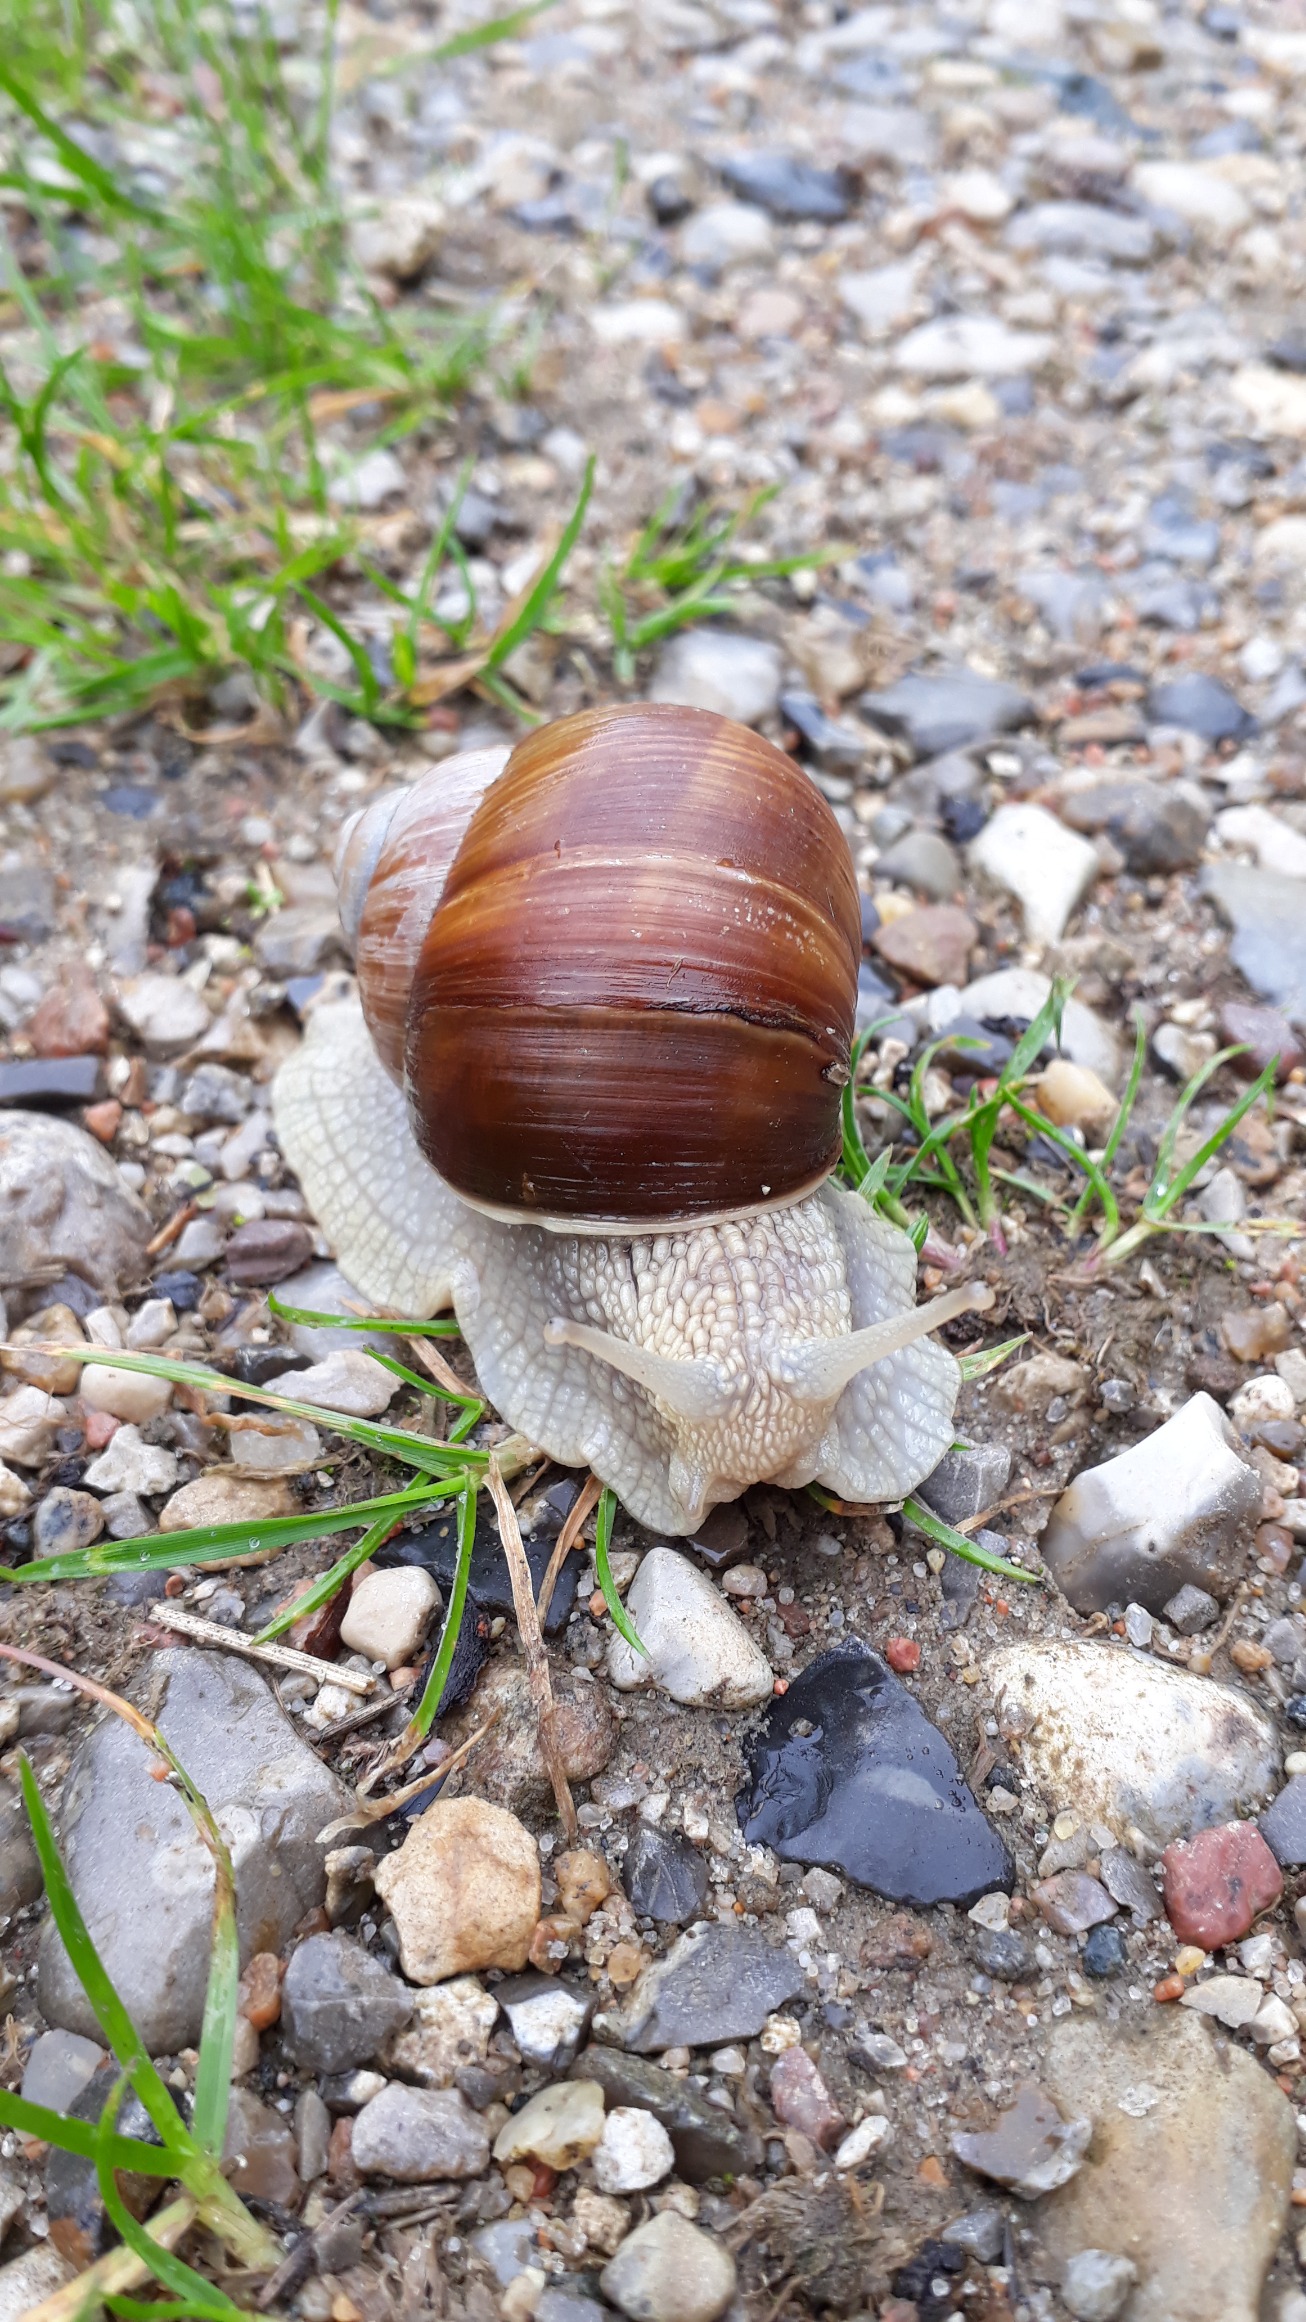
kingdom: Animalia
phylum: Mollusca
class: Gastropoda
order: Stylommatophora
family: Helicidae
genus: Helix
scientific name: Helix pomatia
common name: Vinbjergsnegl
